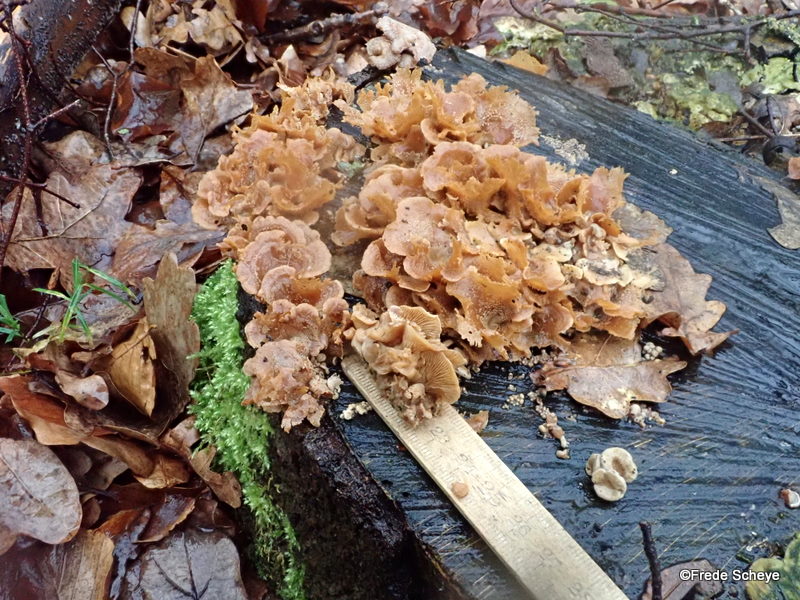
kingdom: Fungi
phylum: Basidiomycota
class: Agaricomycetes
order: Agaricales
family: Mycenaceae
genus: Panellus
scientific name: Panellus stipticus
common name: kliddet epaulethat
